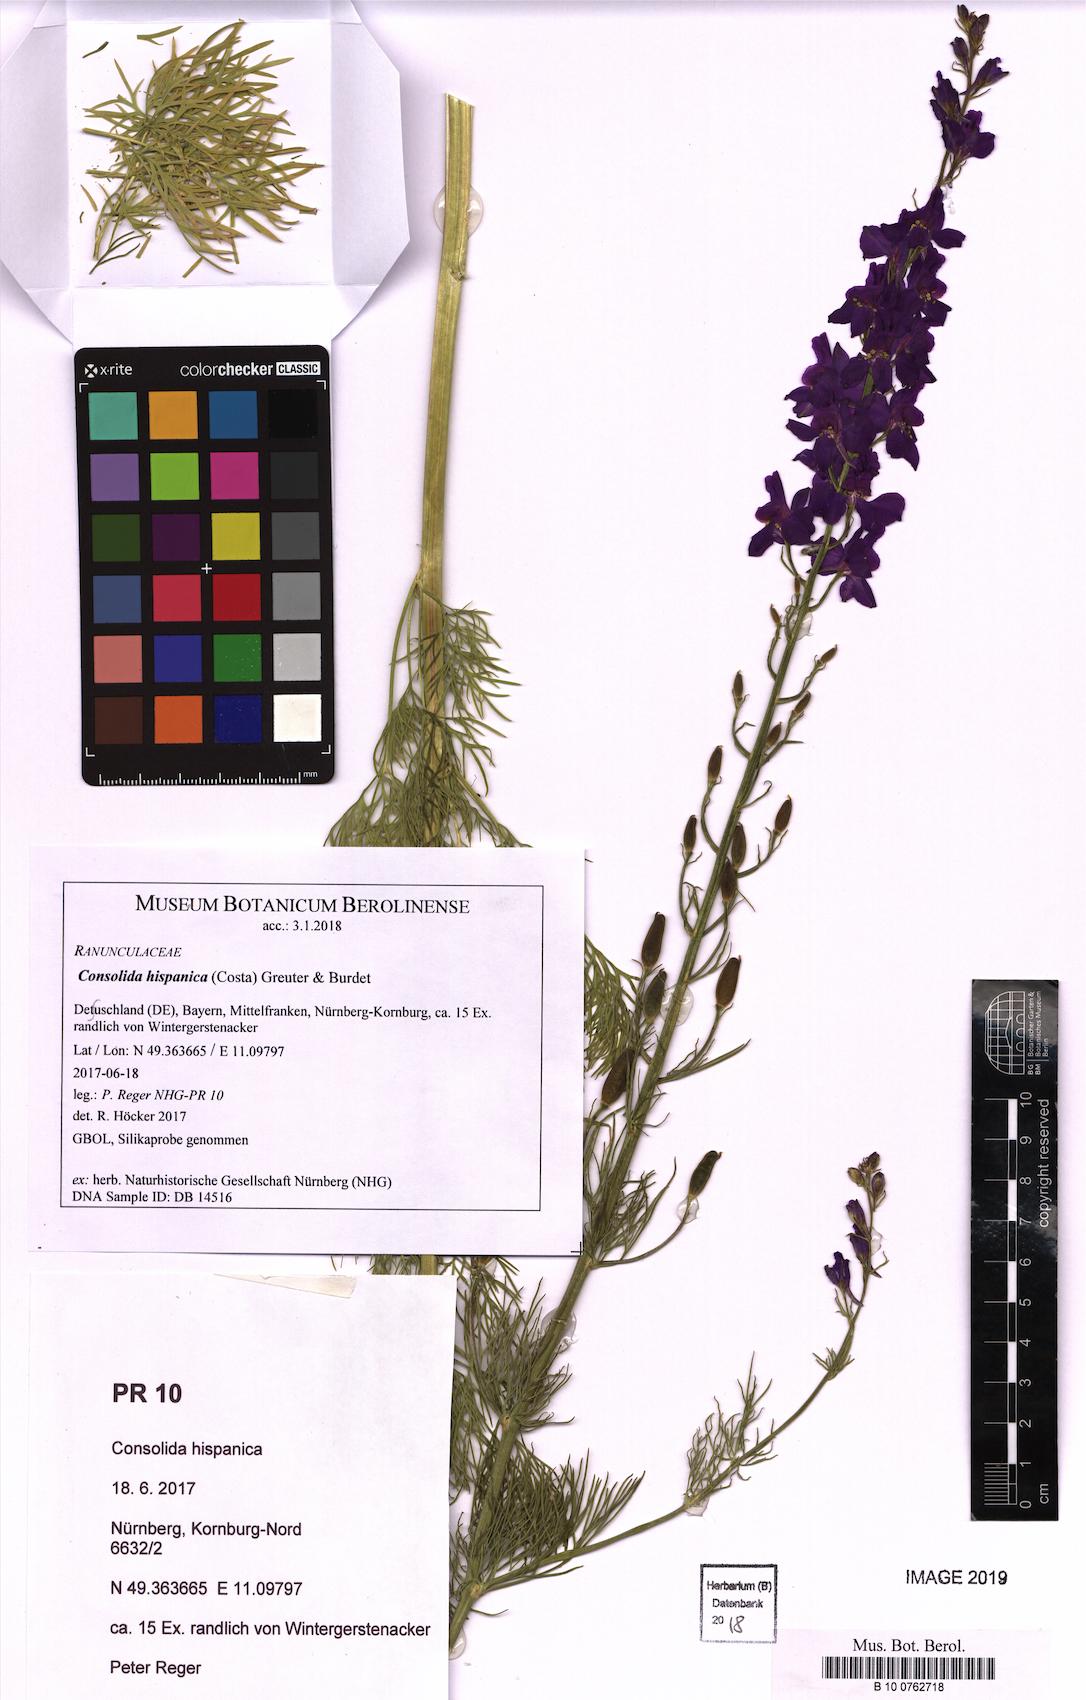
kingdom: Plantae
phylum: Tracheophyta
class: Magnoliopsida
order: Ranunculales
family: Ranunculaceae
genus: Delphinium
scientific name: Delphinium hispanicum
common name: Oriental knight's-spur
